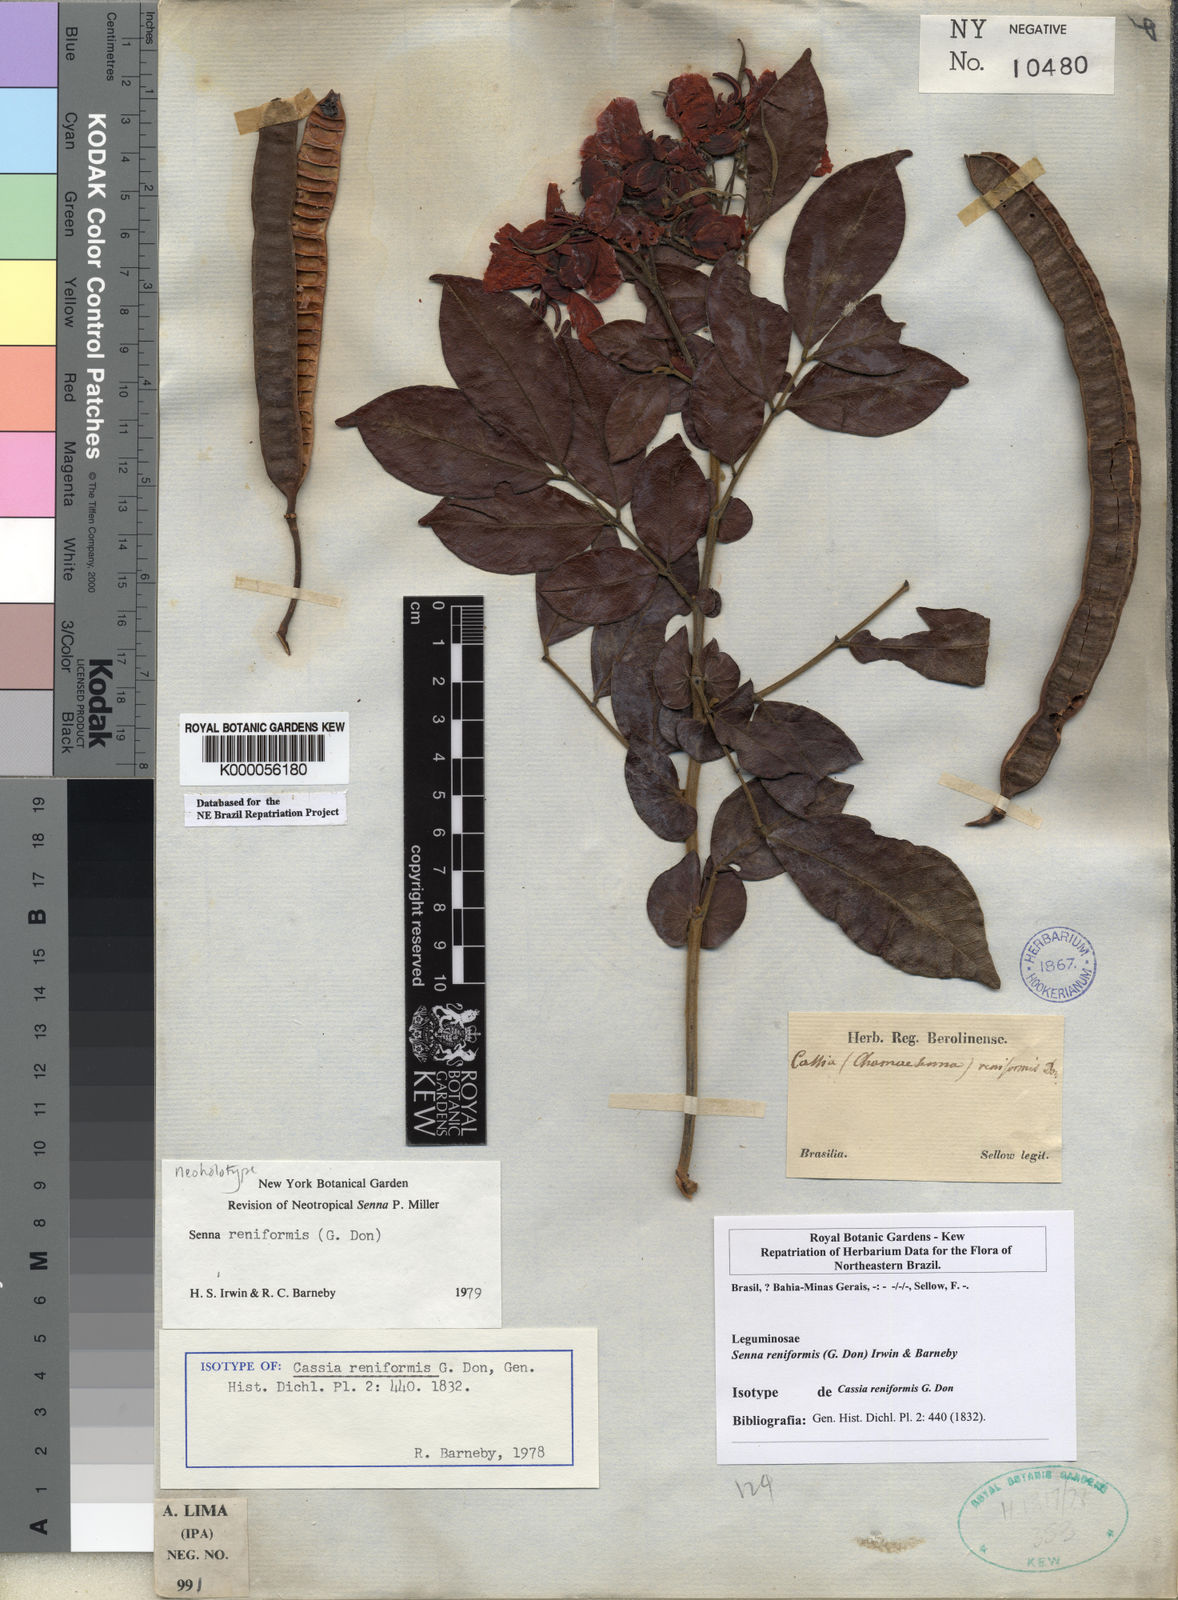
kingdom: Plantae
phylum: Tracheophyta
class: Magnoliopsida
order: Fabales
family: Fabaceae
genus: Senna
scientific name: Senna reniformis
